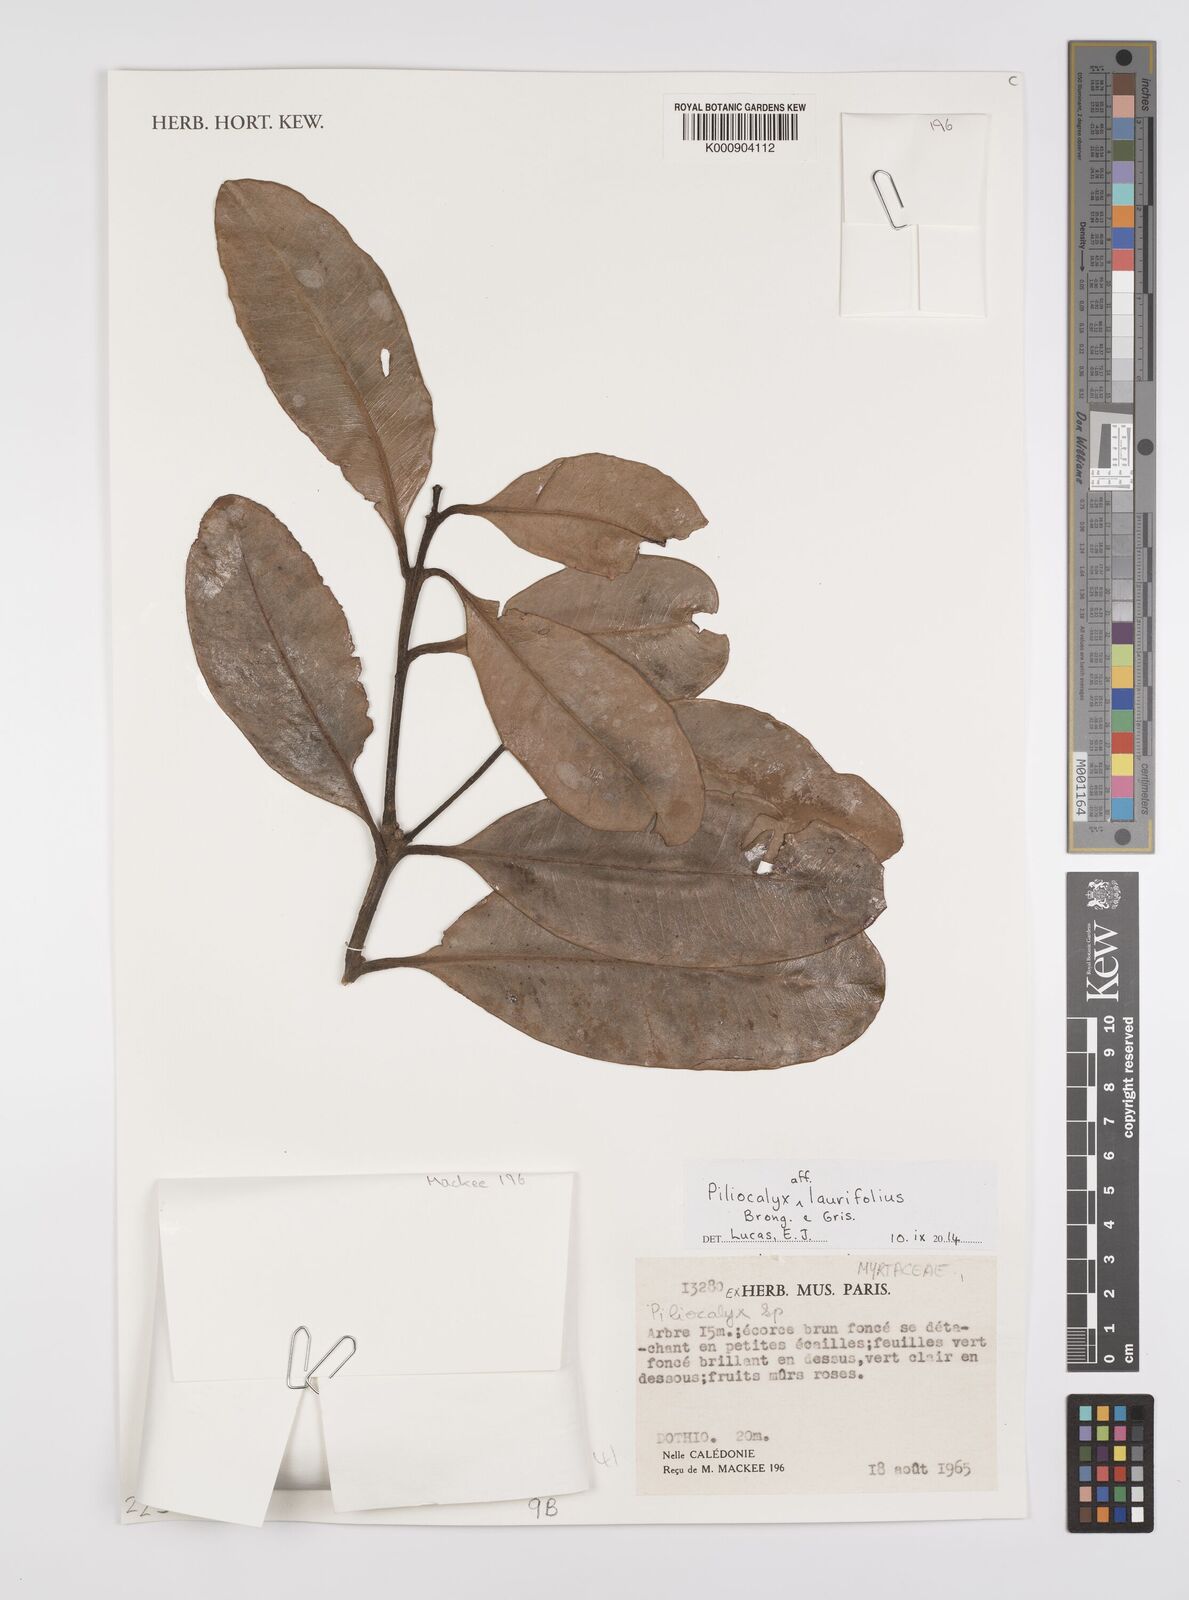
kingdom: Plantae
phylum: Tracheophyta
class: Magnoliopsida
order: Myrtales
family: Myrtaceae
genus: Syzygium
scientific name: Syzygium neolaurifolium
